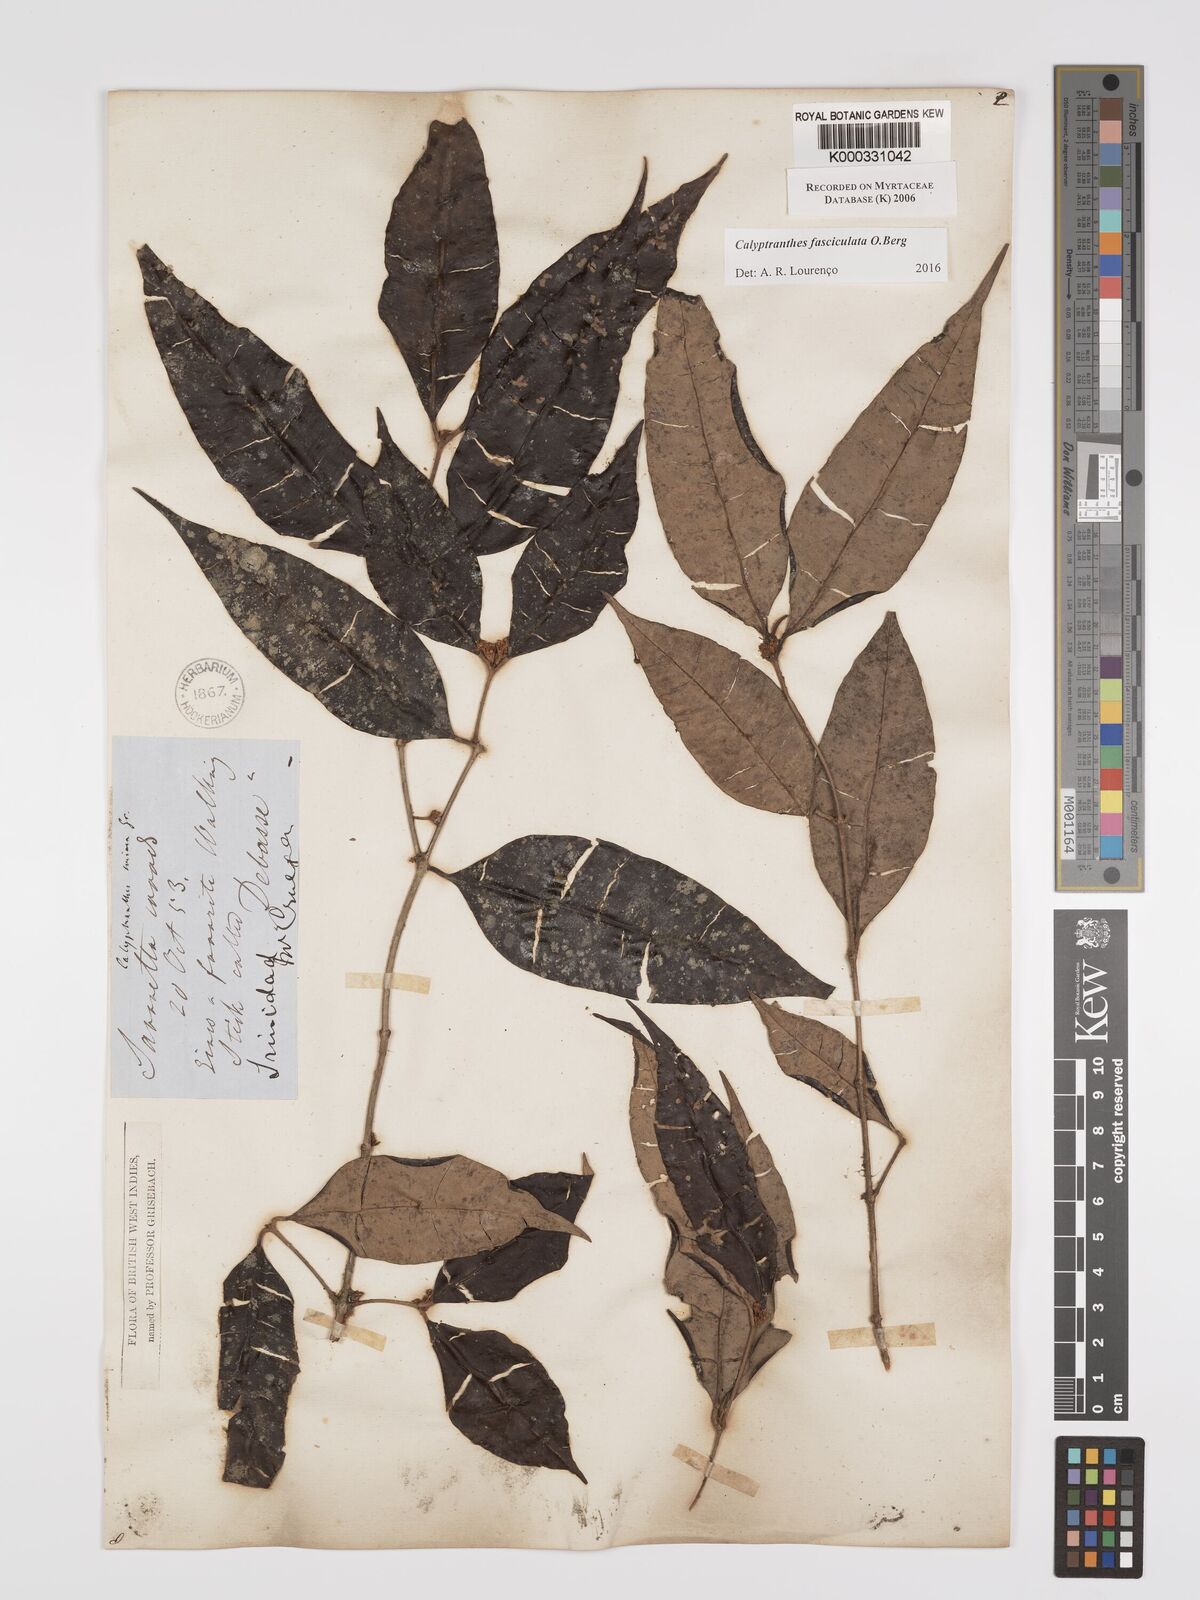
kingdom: Plantae
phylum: Tracheophyta
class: Magnoliopsida
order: Myrtales
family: Myrtaceae
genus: Myrcia
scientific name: Myrcia fasciculata
